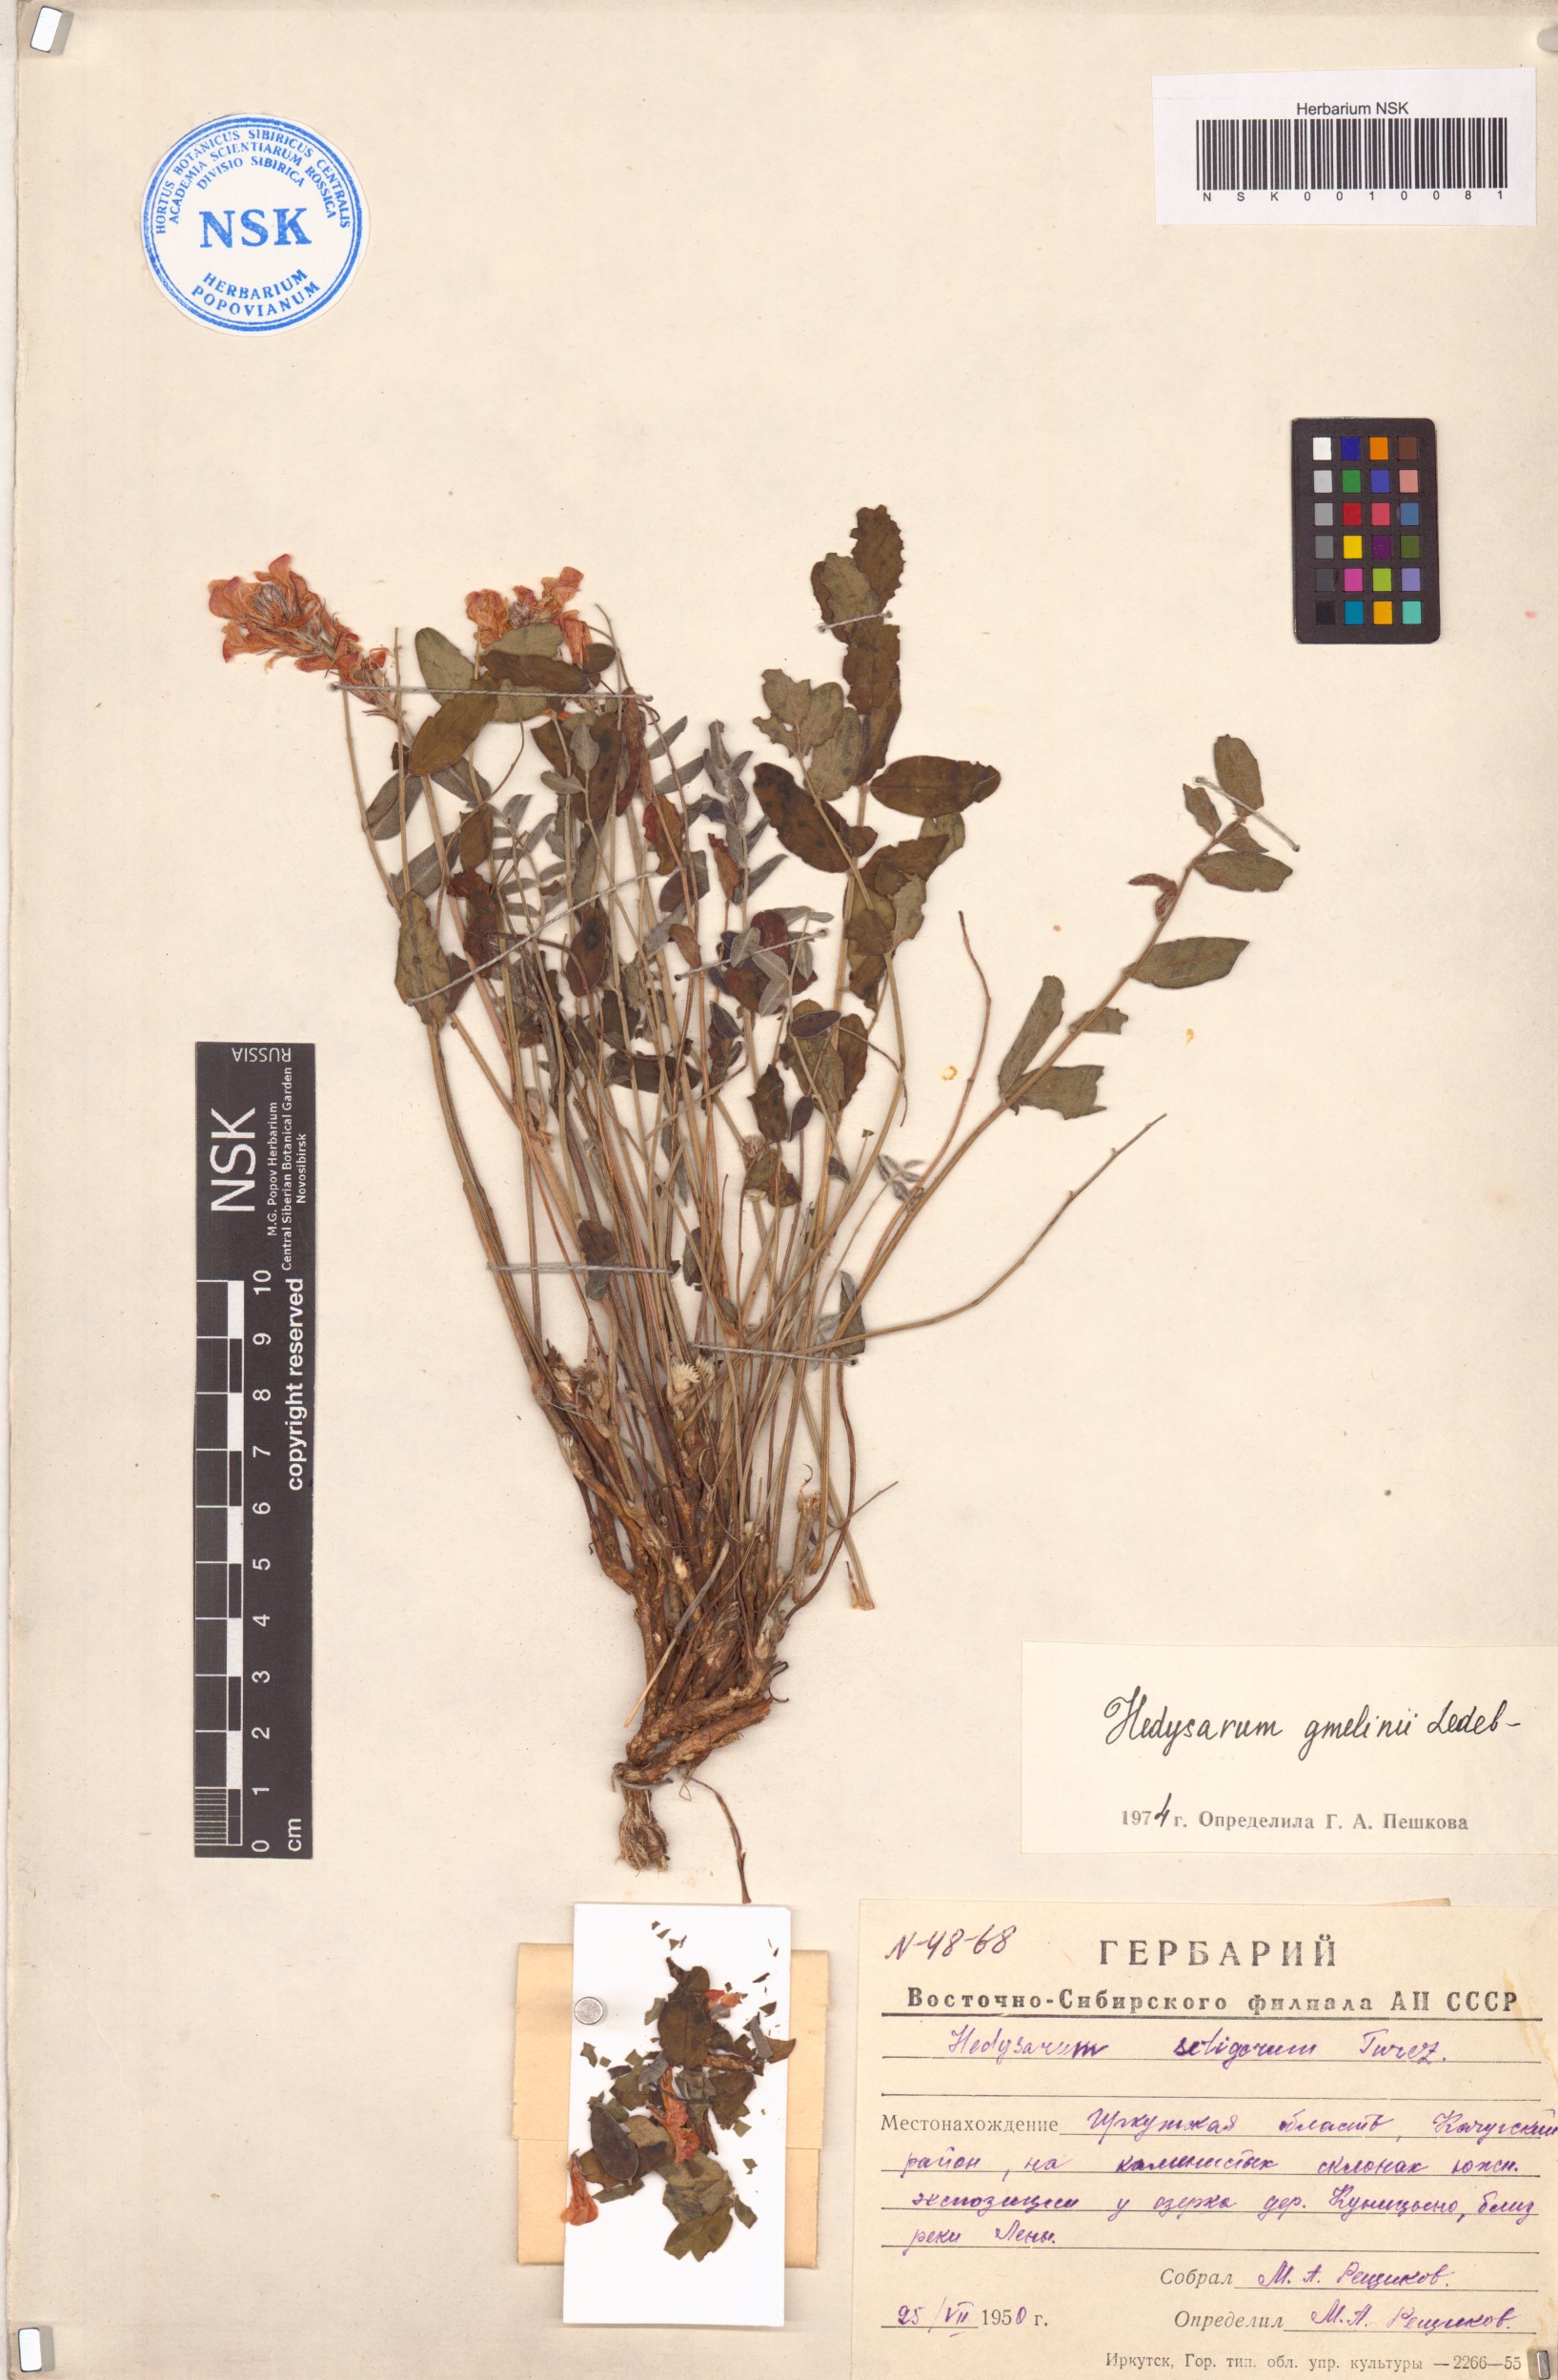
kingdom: Plantae
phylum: Tracheophyta
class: Magnoliopsida
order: Fabales
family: Fabaceae
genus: Hedysarum
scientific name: Hedysarum gmelinii
